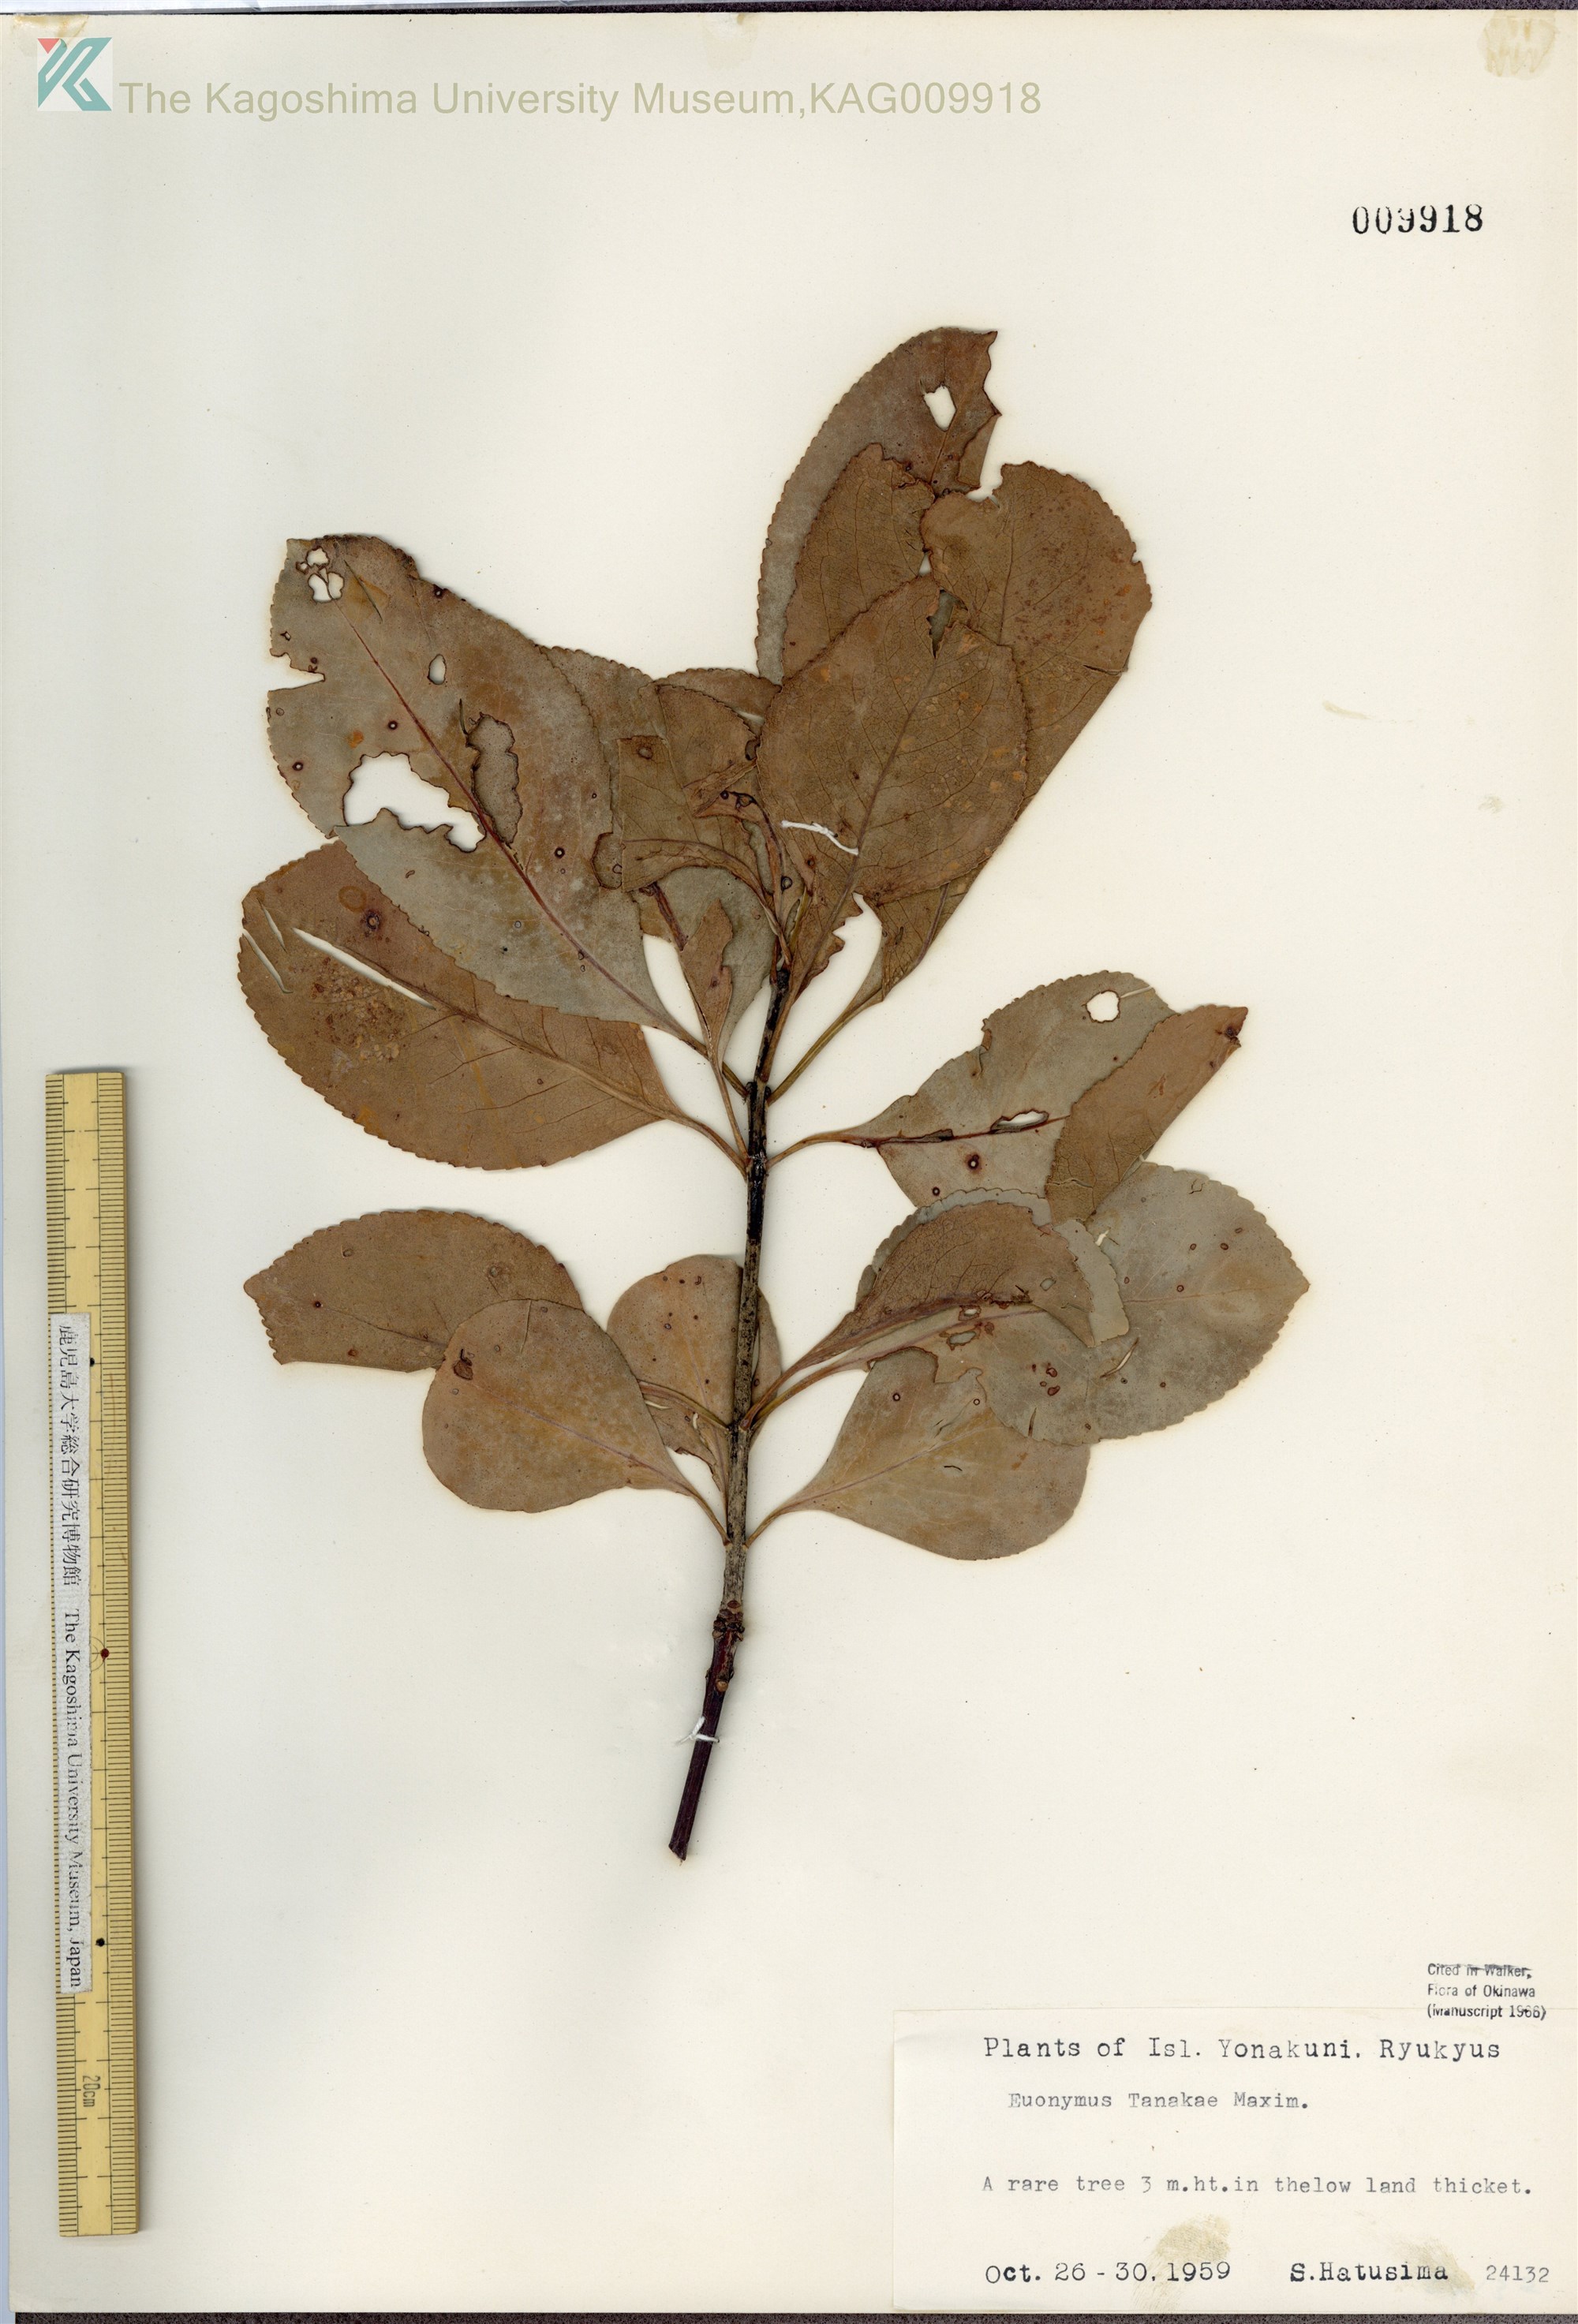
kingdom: Plantae
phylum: Tracheophyta
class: Magnoliopsida
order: Celastrales
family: Celastraceae
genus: Euonymus
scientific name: Euonymus carnosus
